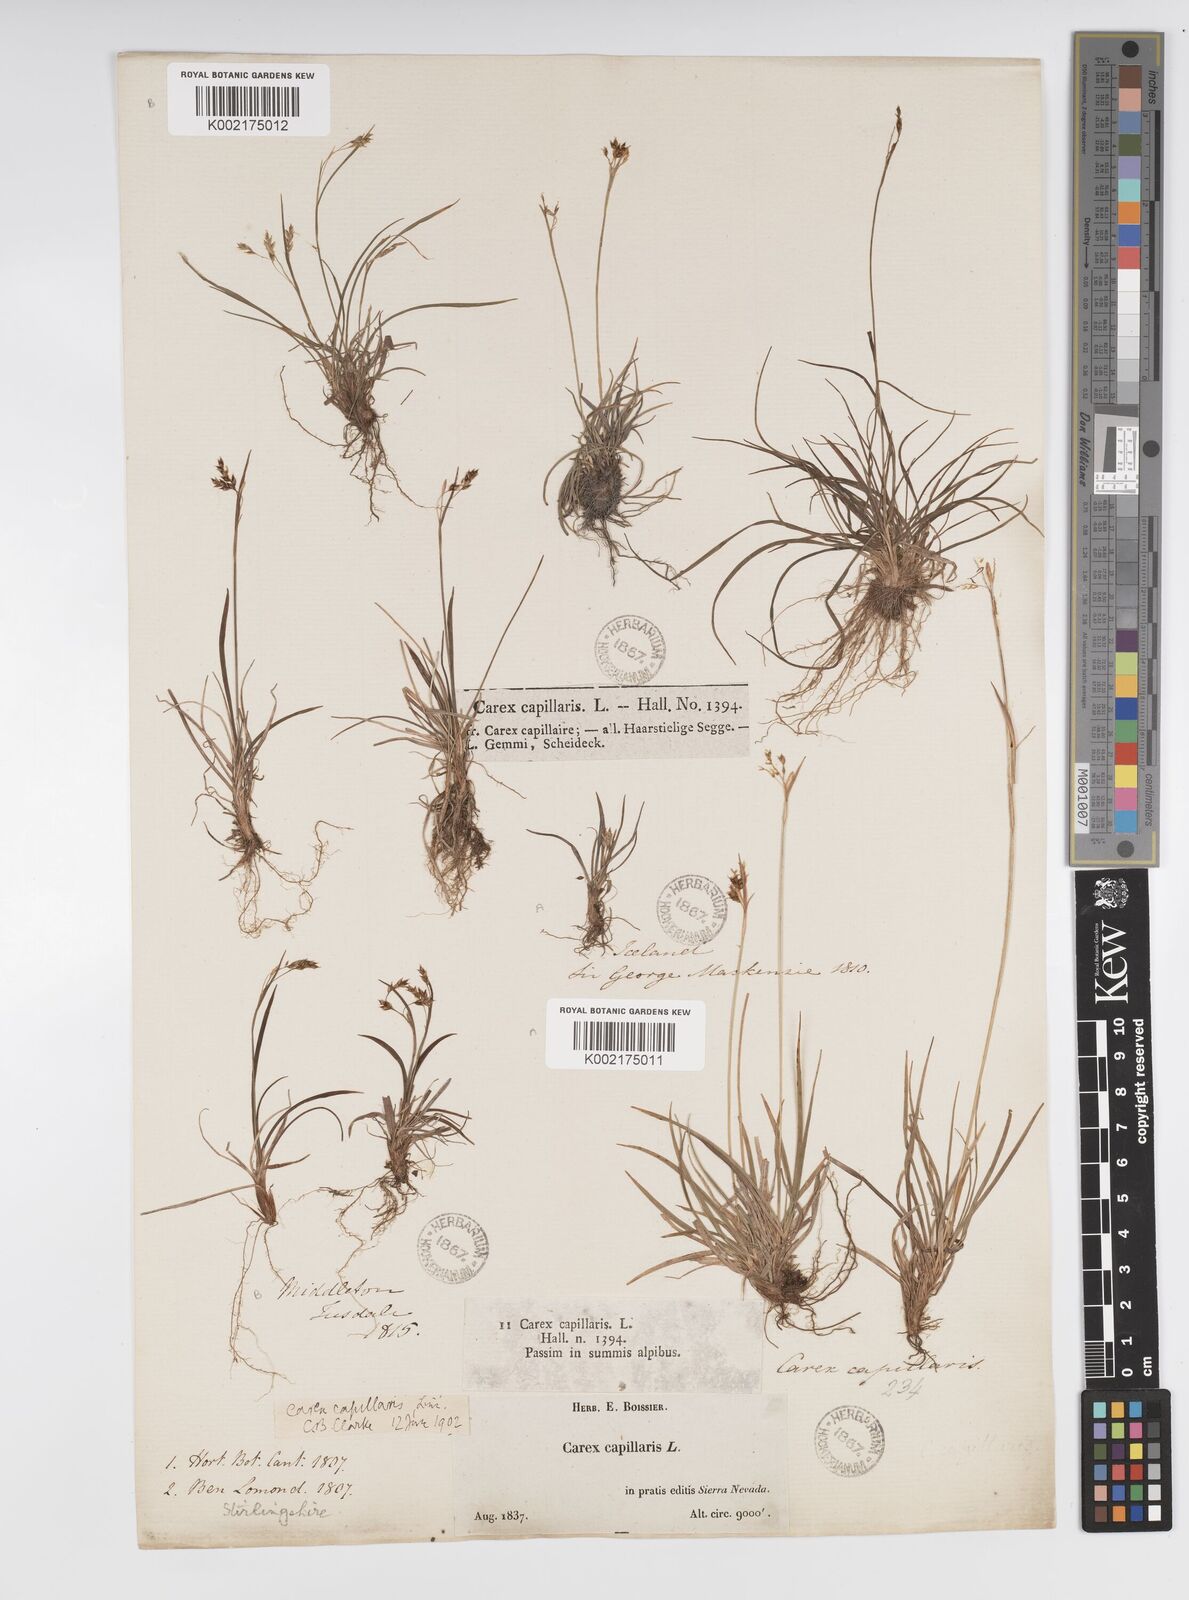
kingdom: Plantae
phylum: Tracheophyta
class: Liliopsida
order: Poales
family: Cyperaceae
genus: Carex
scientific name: Carex capillaris
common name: Hair sedge
